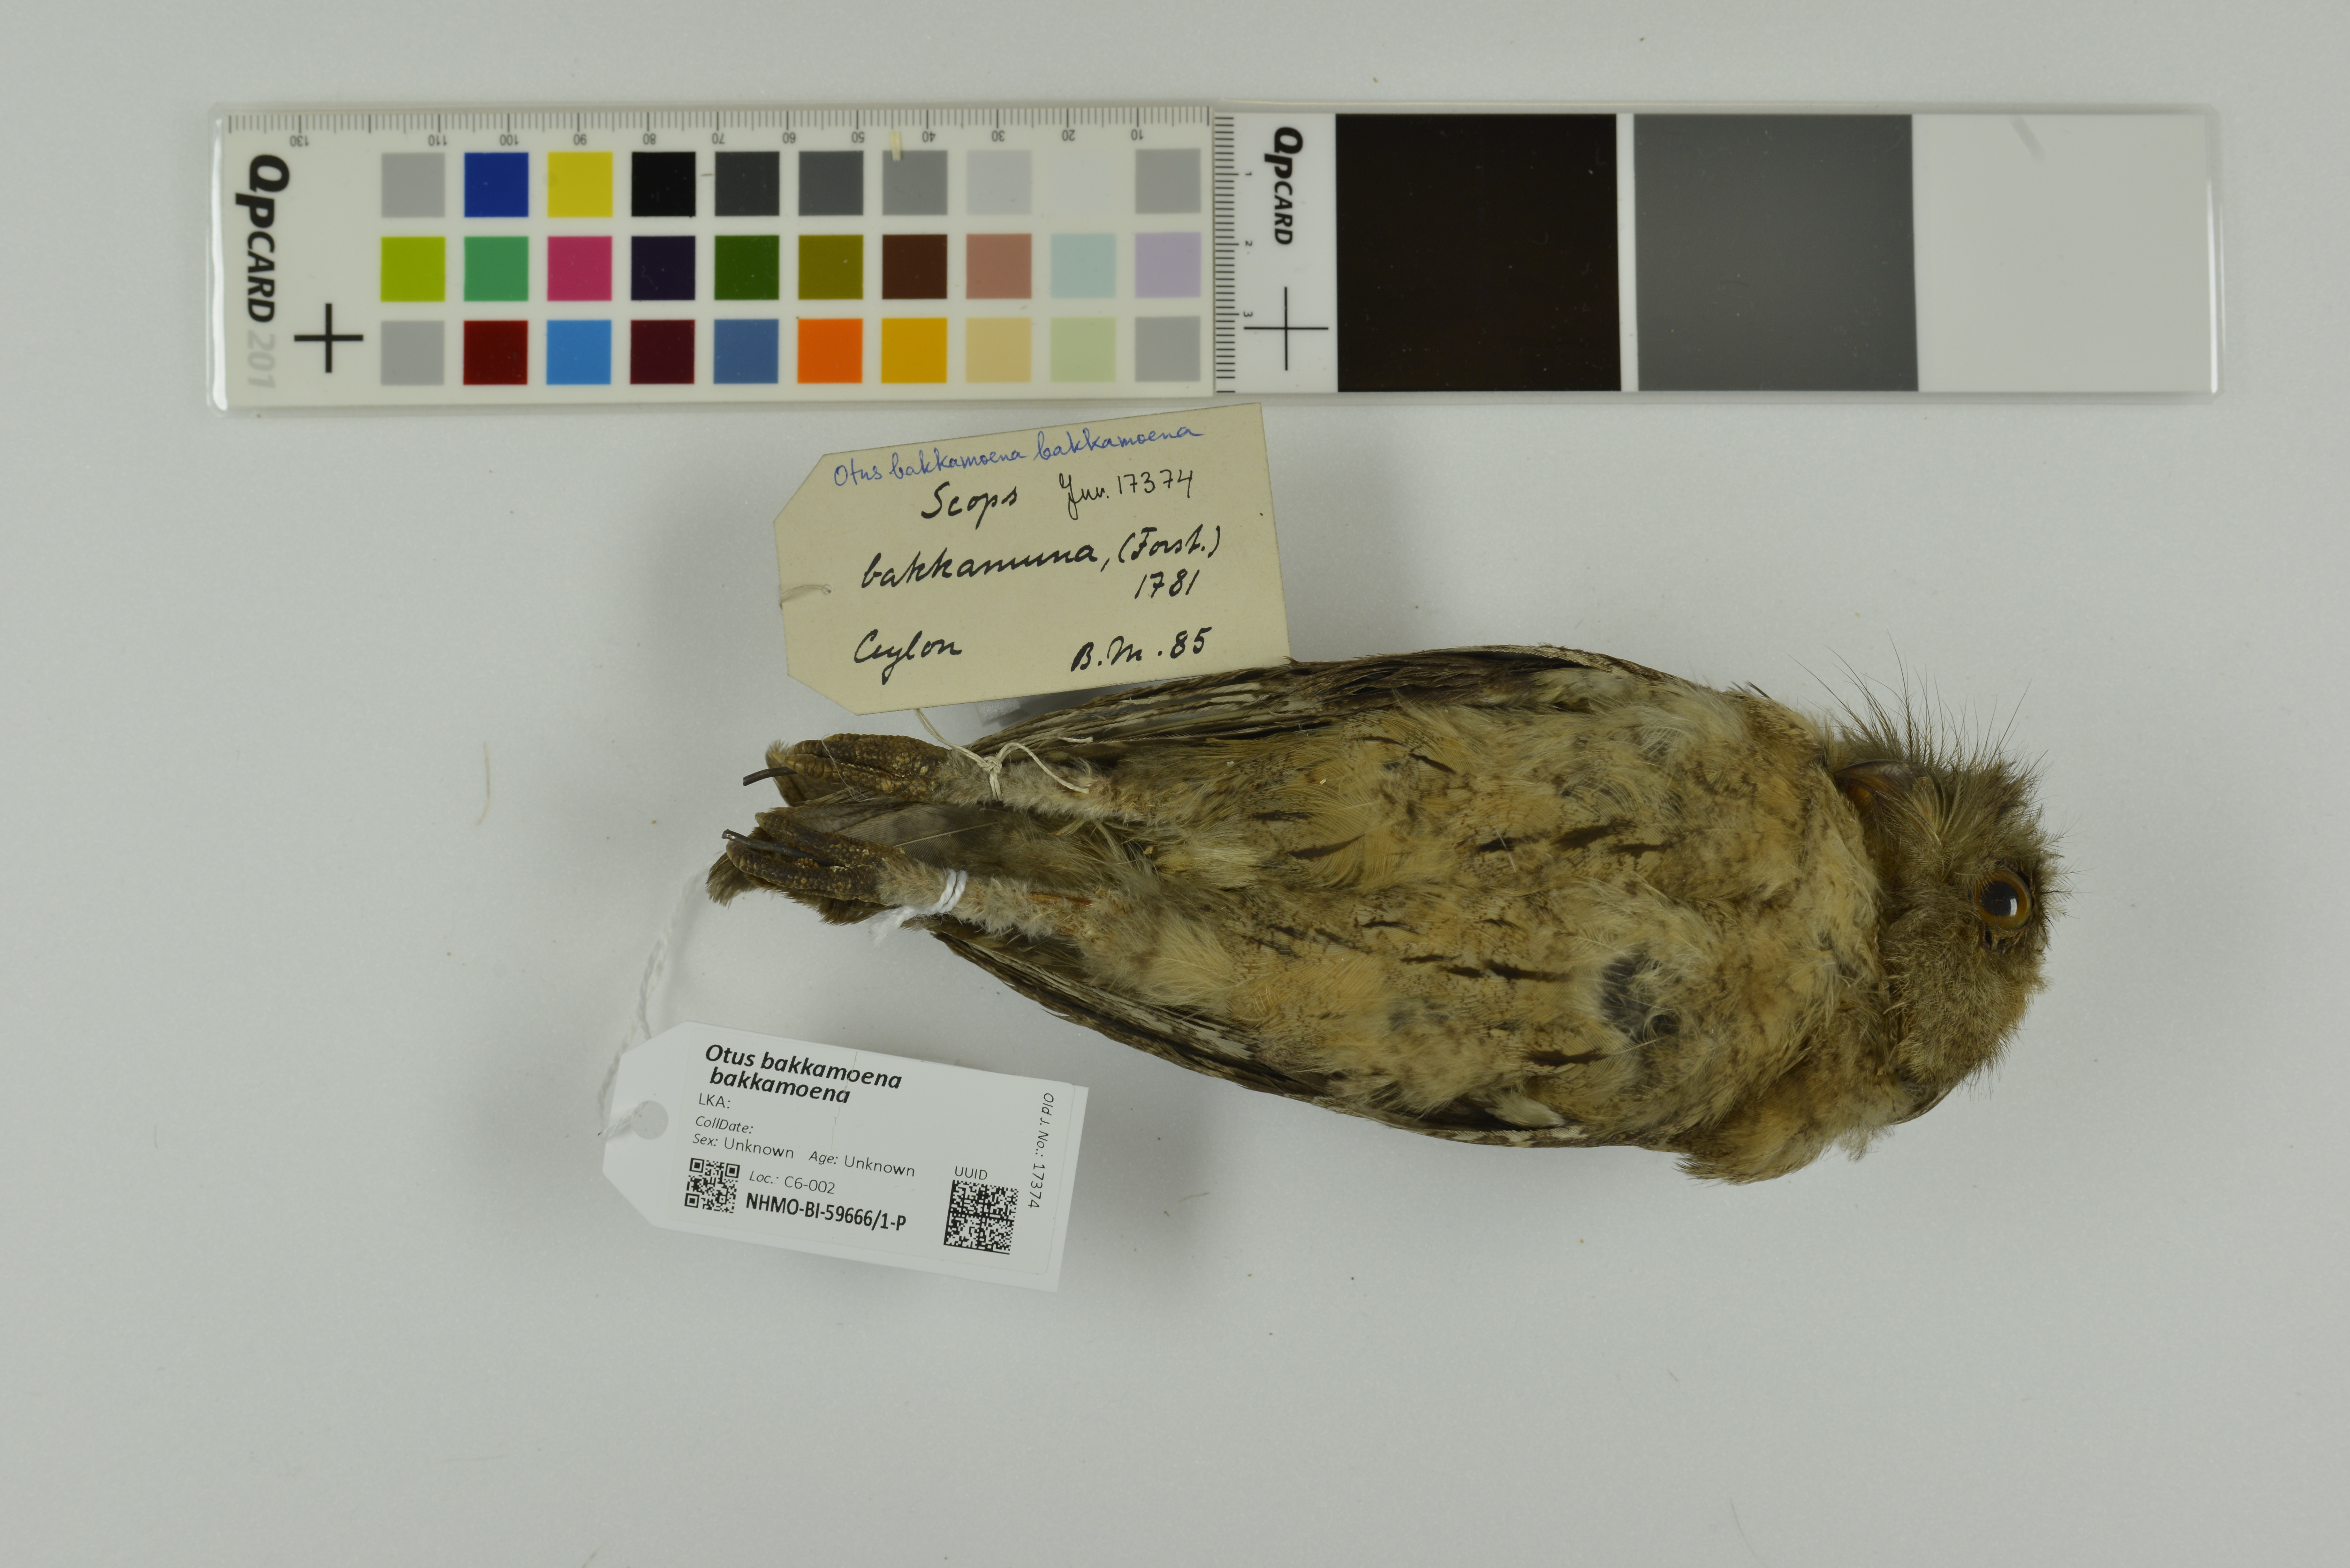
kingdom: Animalia
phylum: Chordata
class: Aves
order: Strigiformes
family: Strigidae
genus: Otus
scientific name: Otus bakkamoena
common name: Indian scops owl
